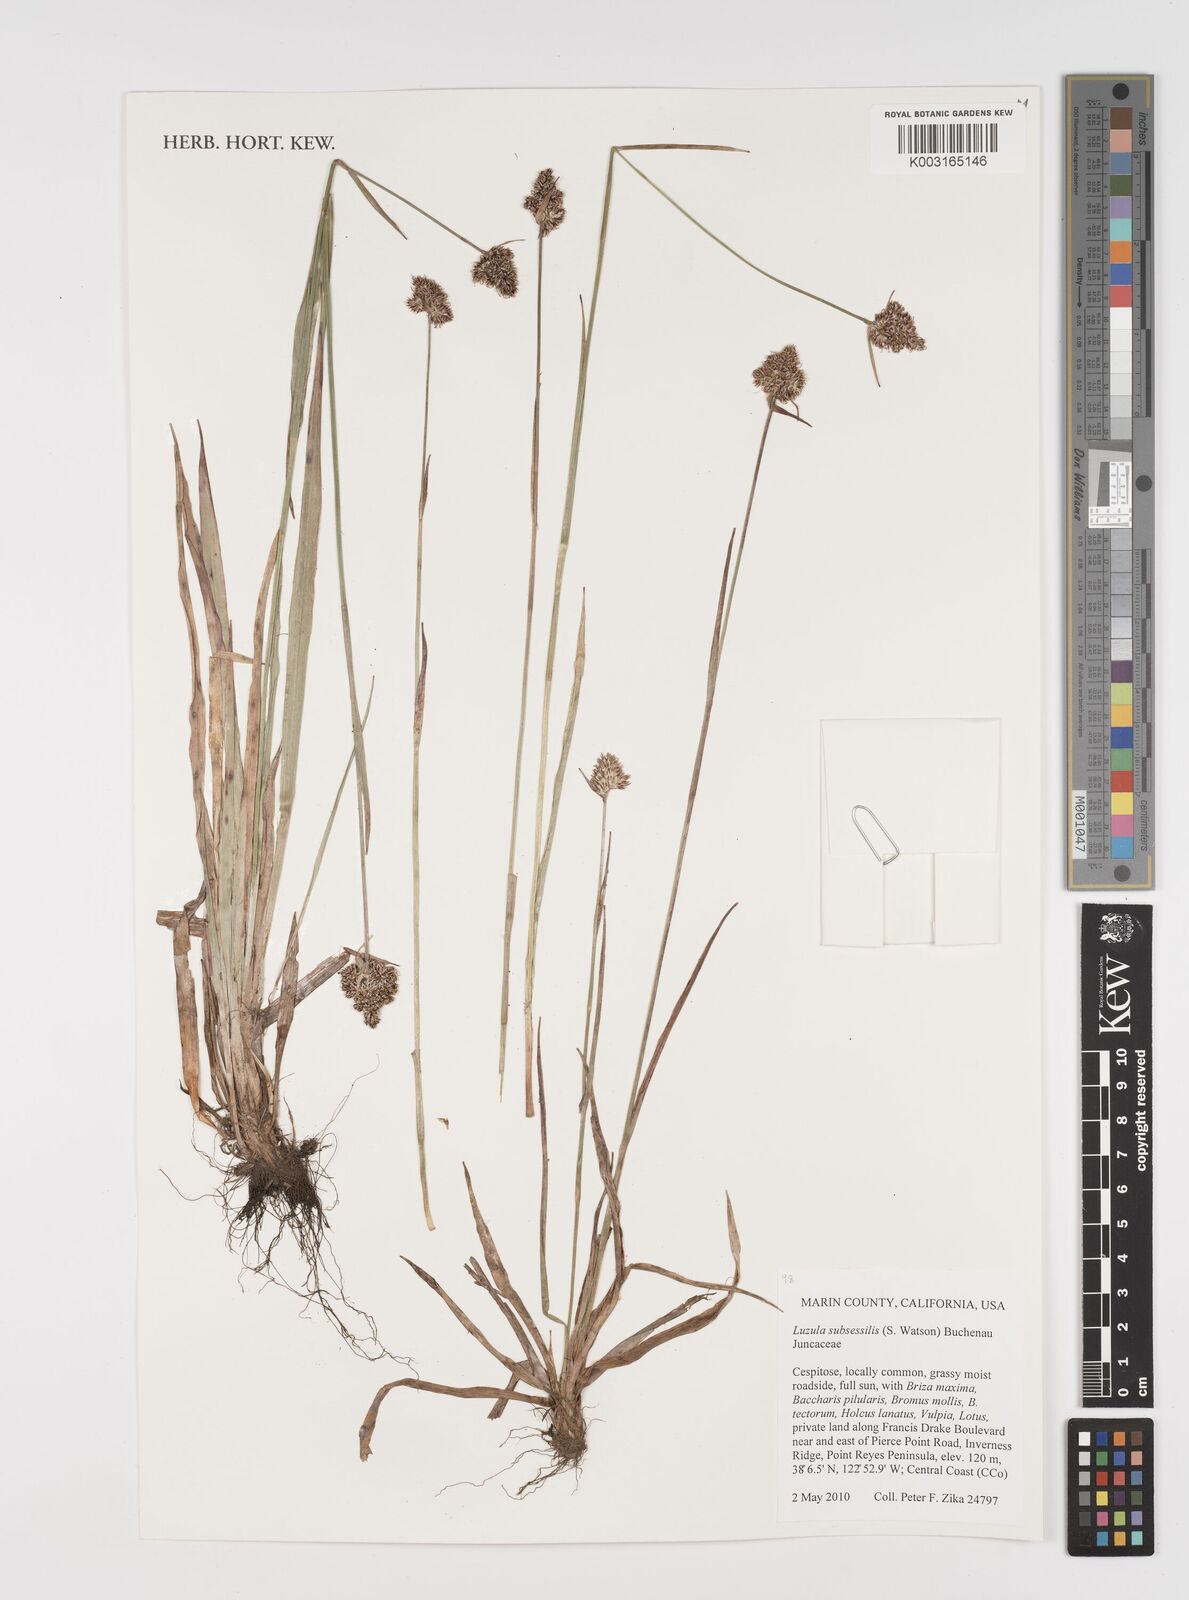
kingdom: Plantae
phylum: Tracheophyta
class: Liliopsida
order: Poales
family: Juncaceae
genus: Luzula
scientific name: Luzula macrantha
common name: Large-anthered woodrush
